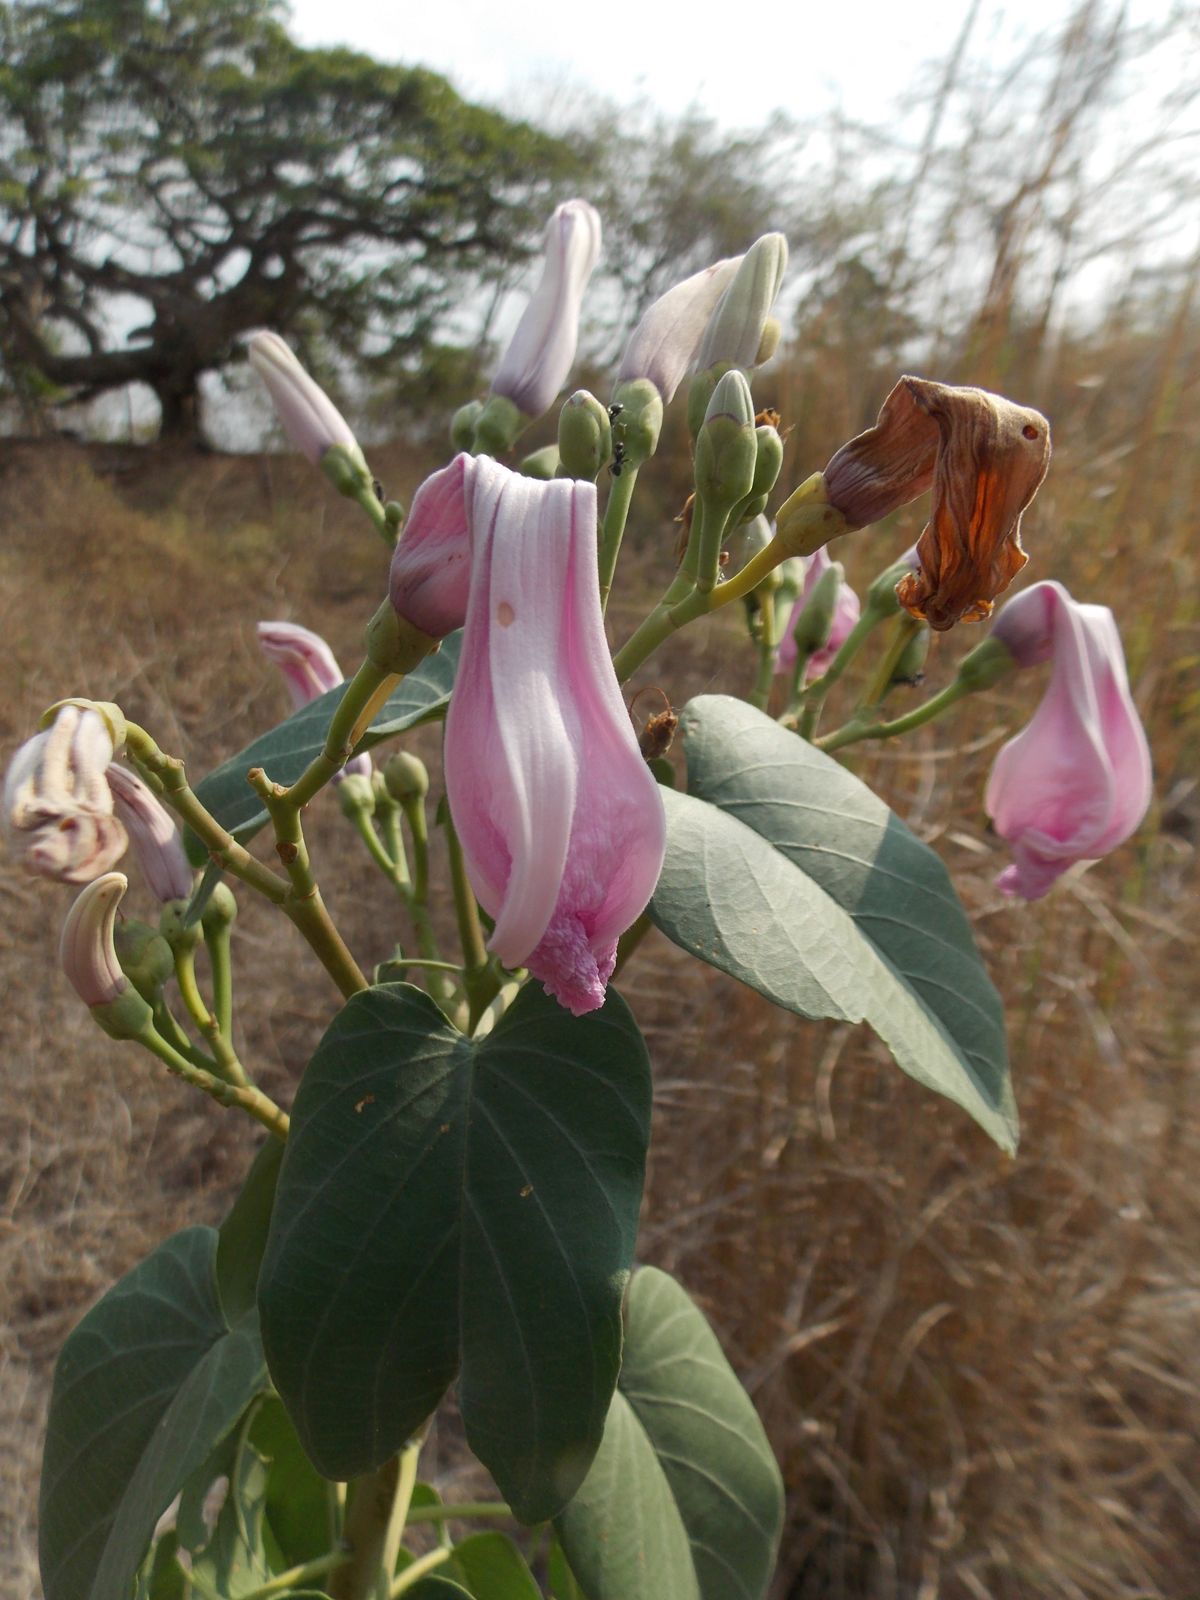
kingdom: Plantae
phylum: Tracheophyta
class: Magnoliopsida
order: Solanales
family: Convolvulaceae
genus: Ipomoea
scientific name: Ipomoea carnea
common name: Morning-glory
